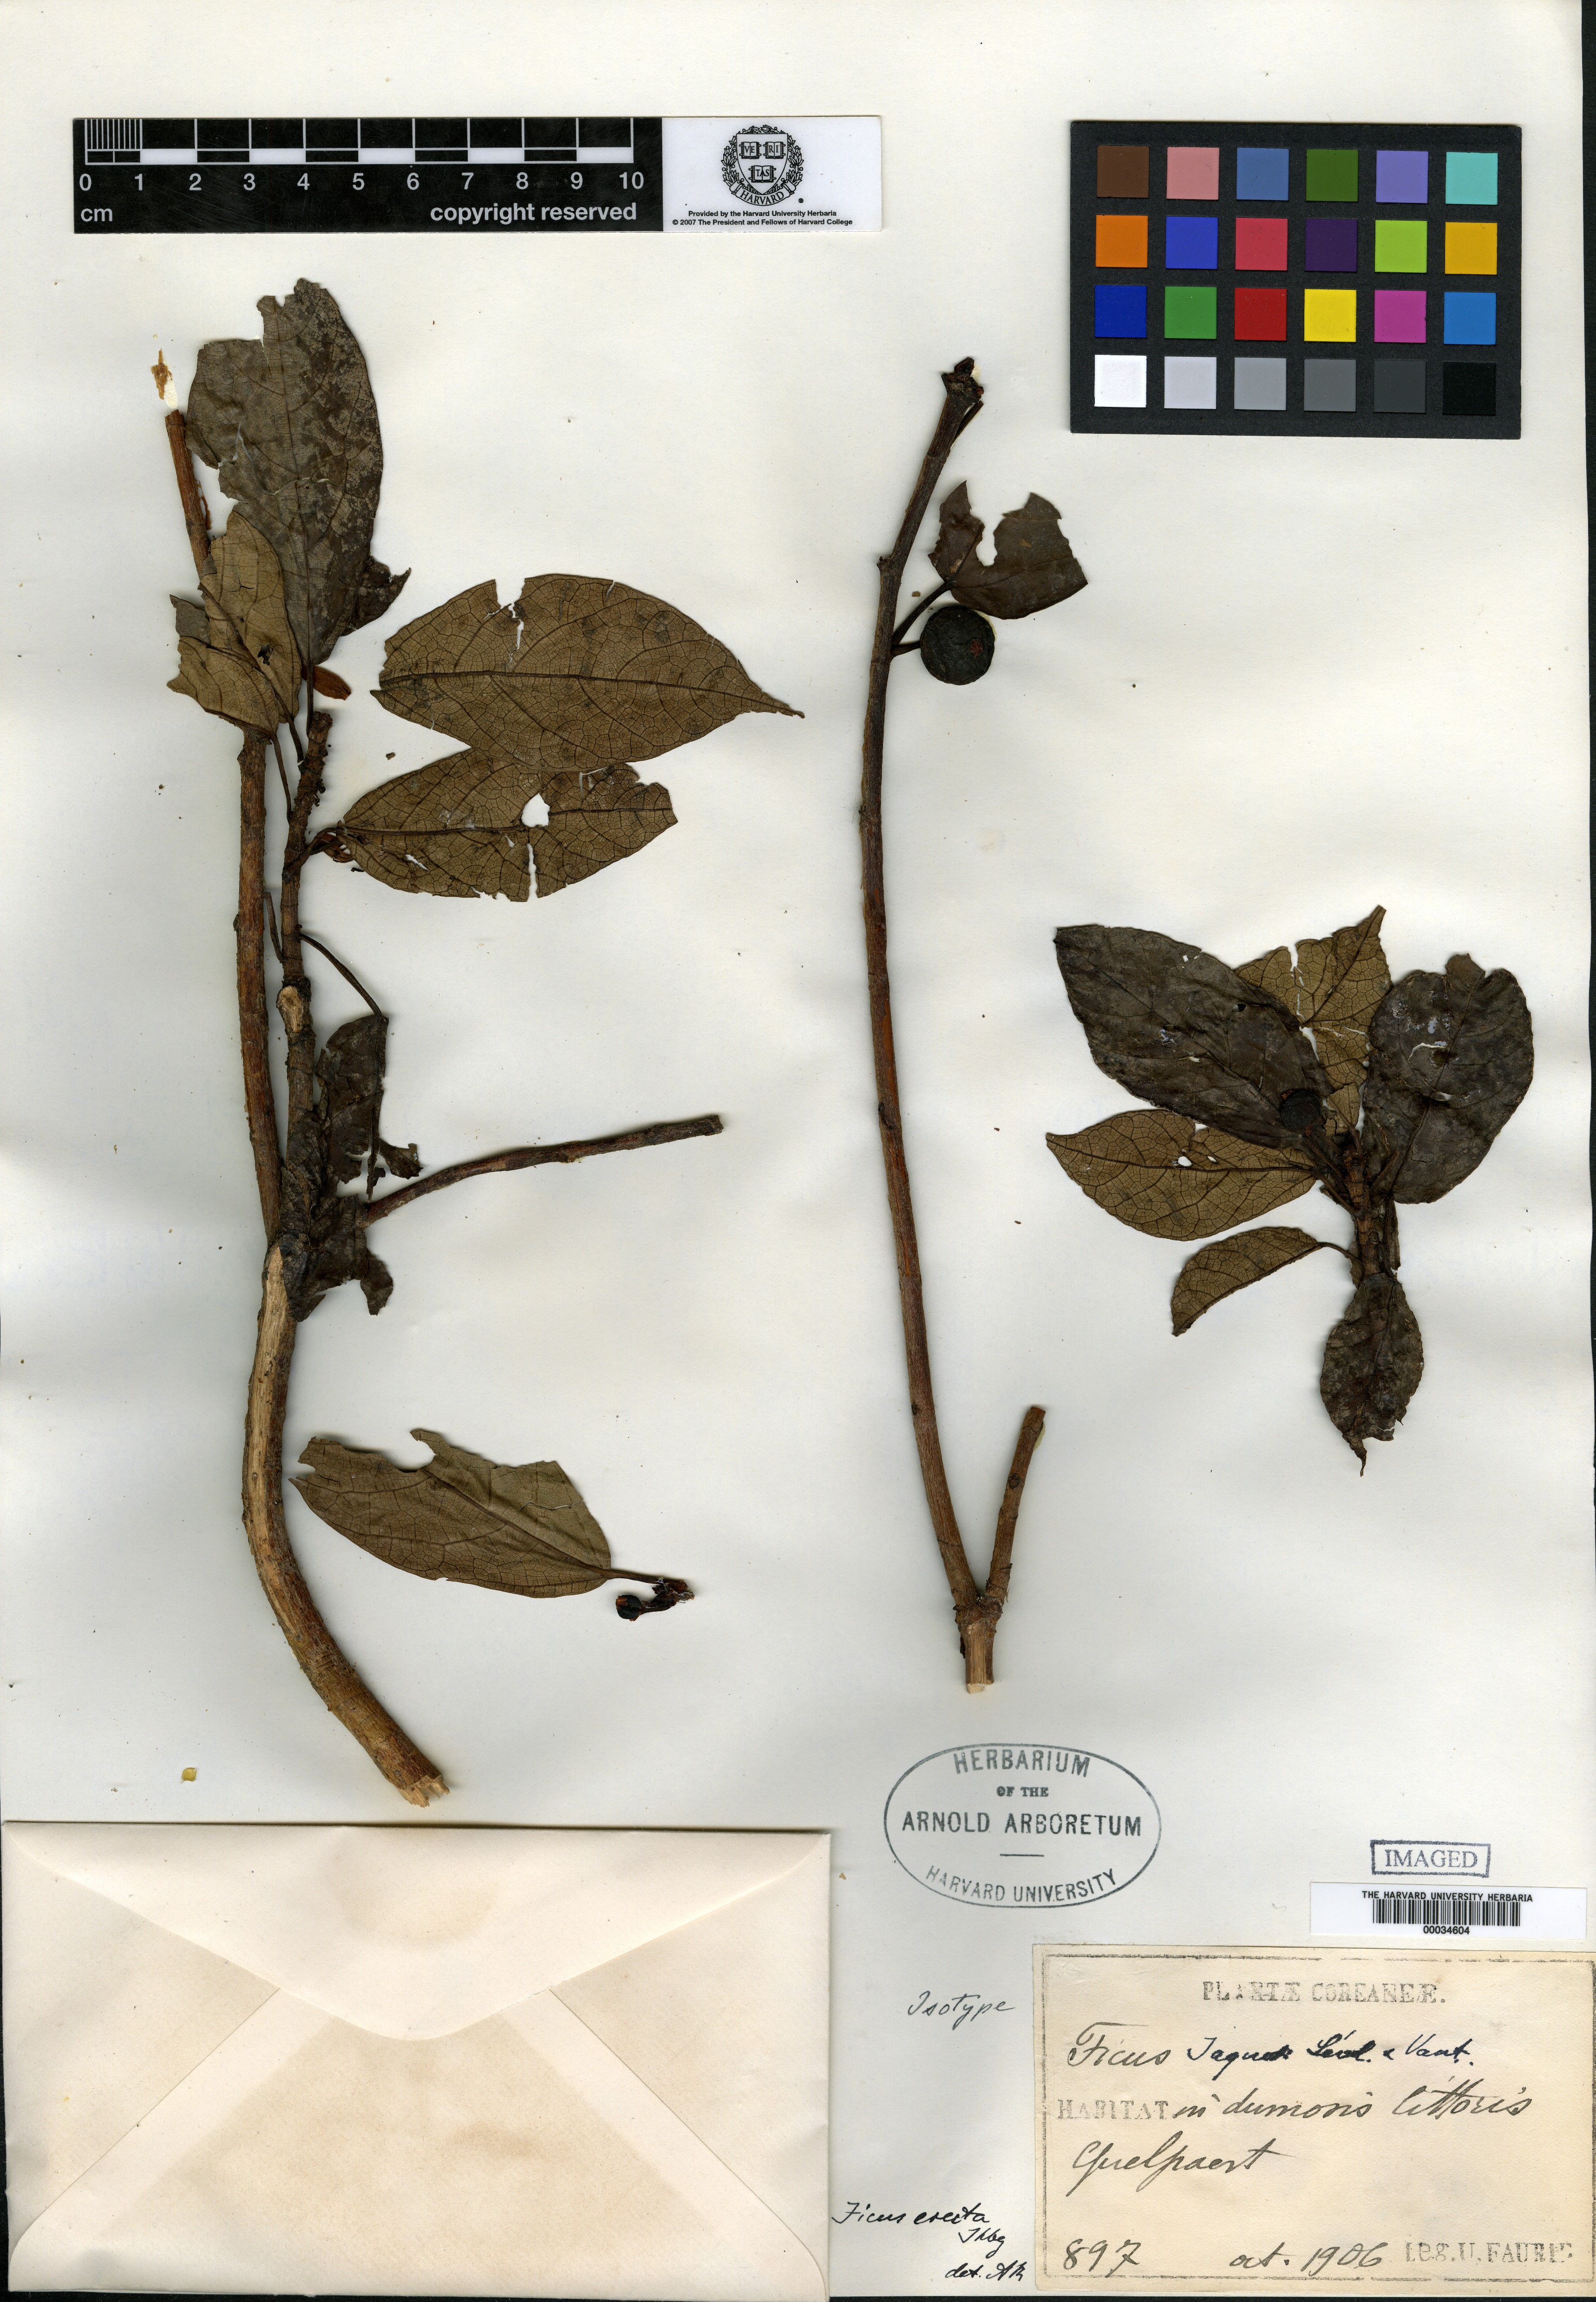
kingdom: Plantae
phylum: Tracheophyta
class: Magnoliopsida
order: Rosales
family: Moraceae
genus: Ficus
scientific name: Ficus erecta
